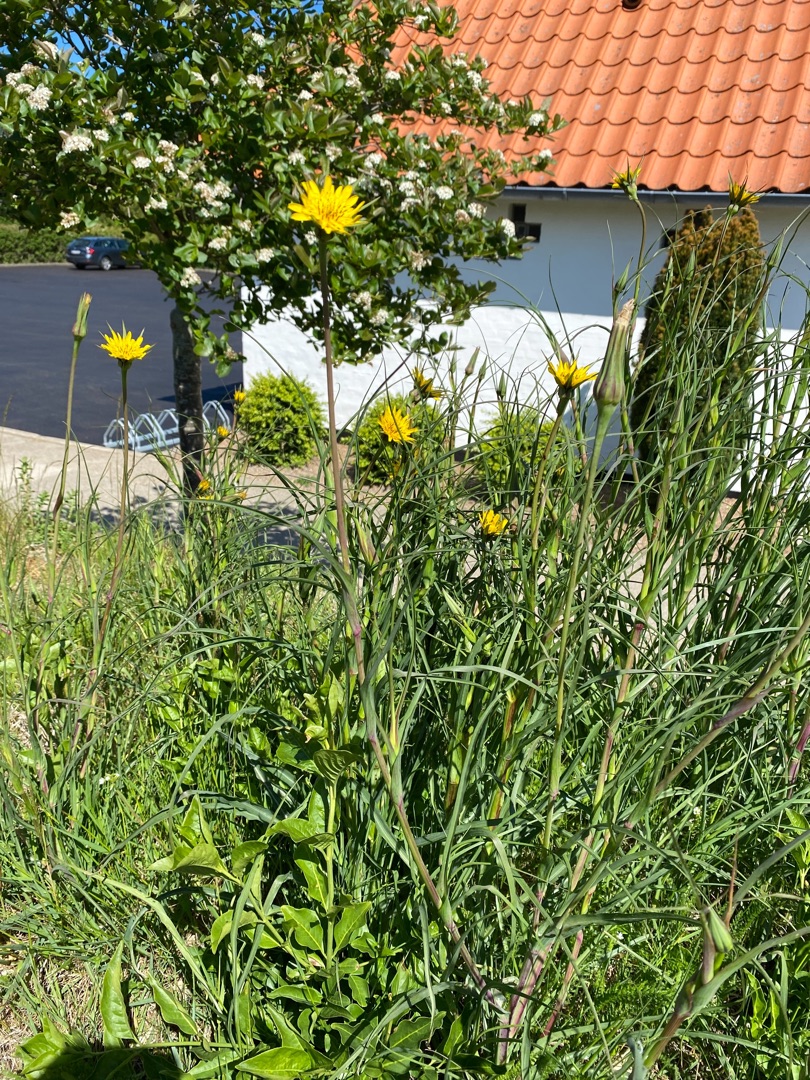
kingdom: Plantae
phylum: Tracheophyta
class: Magnoliopsida
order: Asterales
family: Asteraceae
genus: Tragopogon
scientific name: Tragopogon minor
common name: Småkronet gedeskæg
